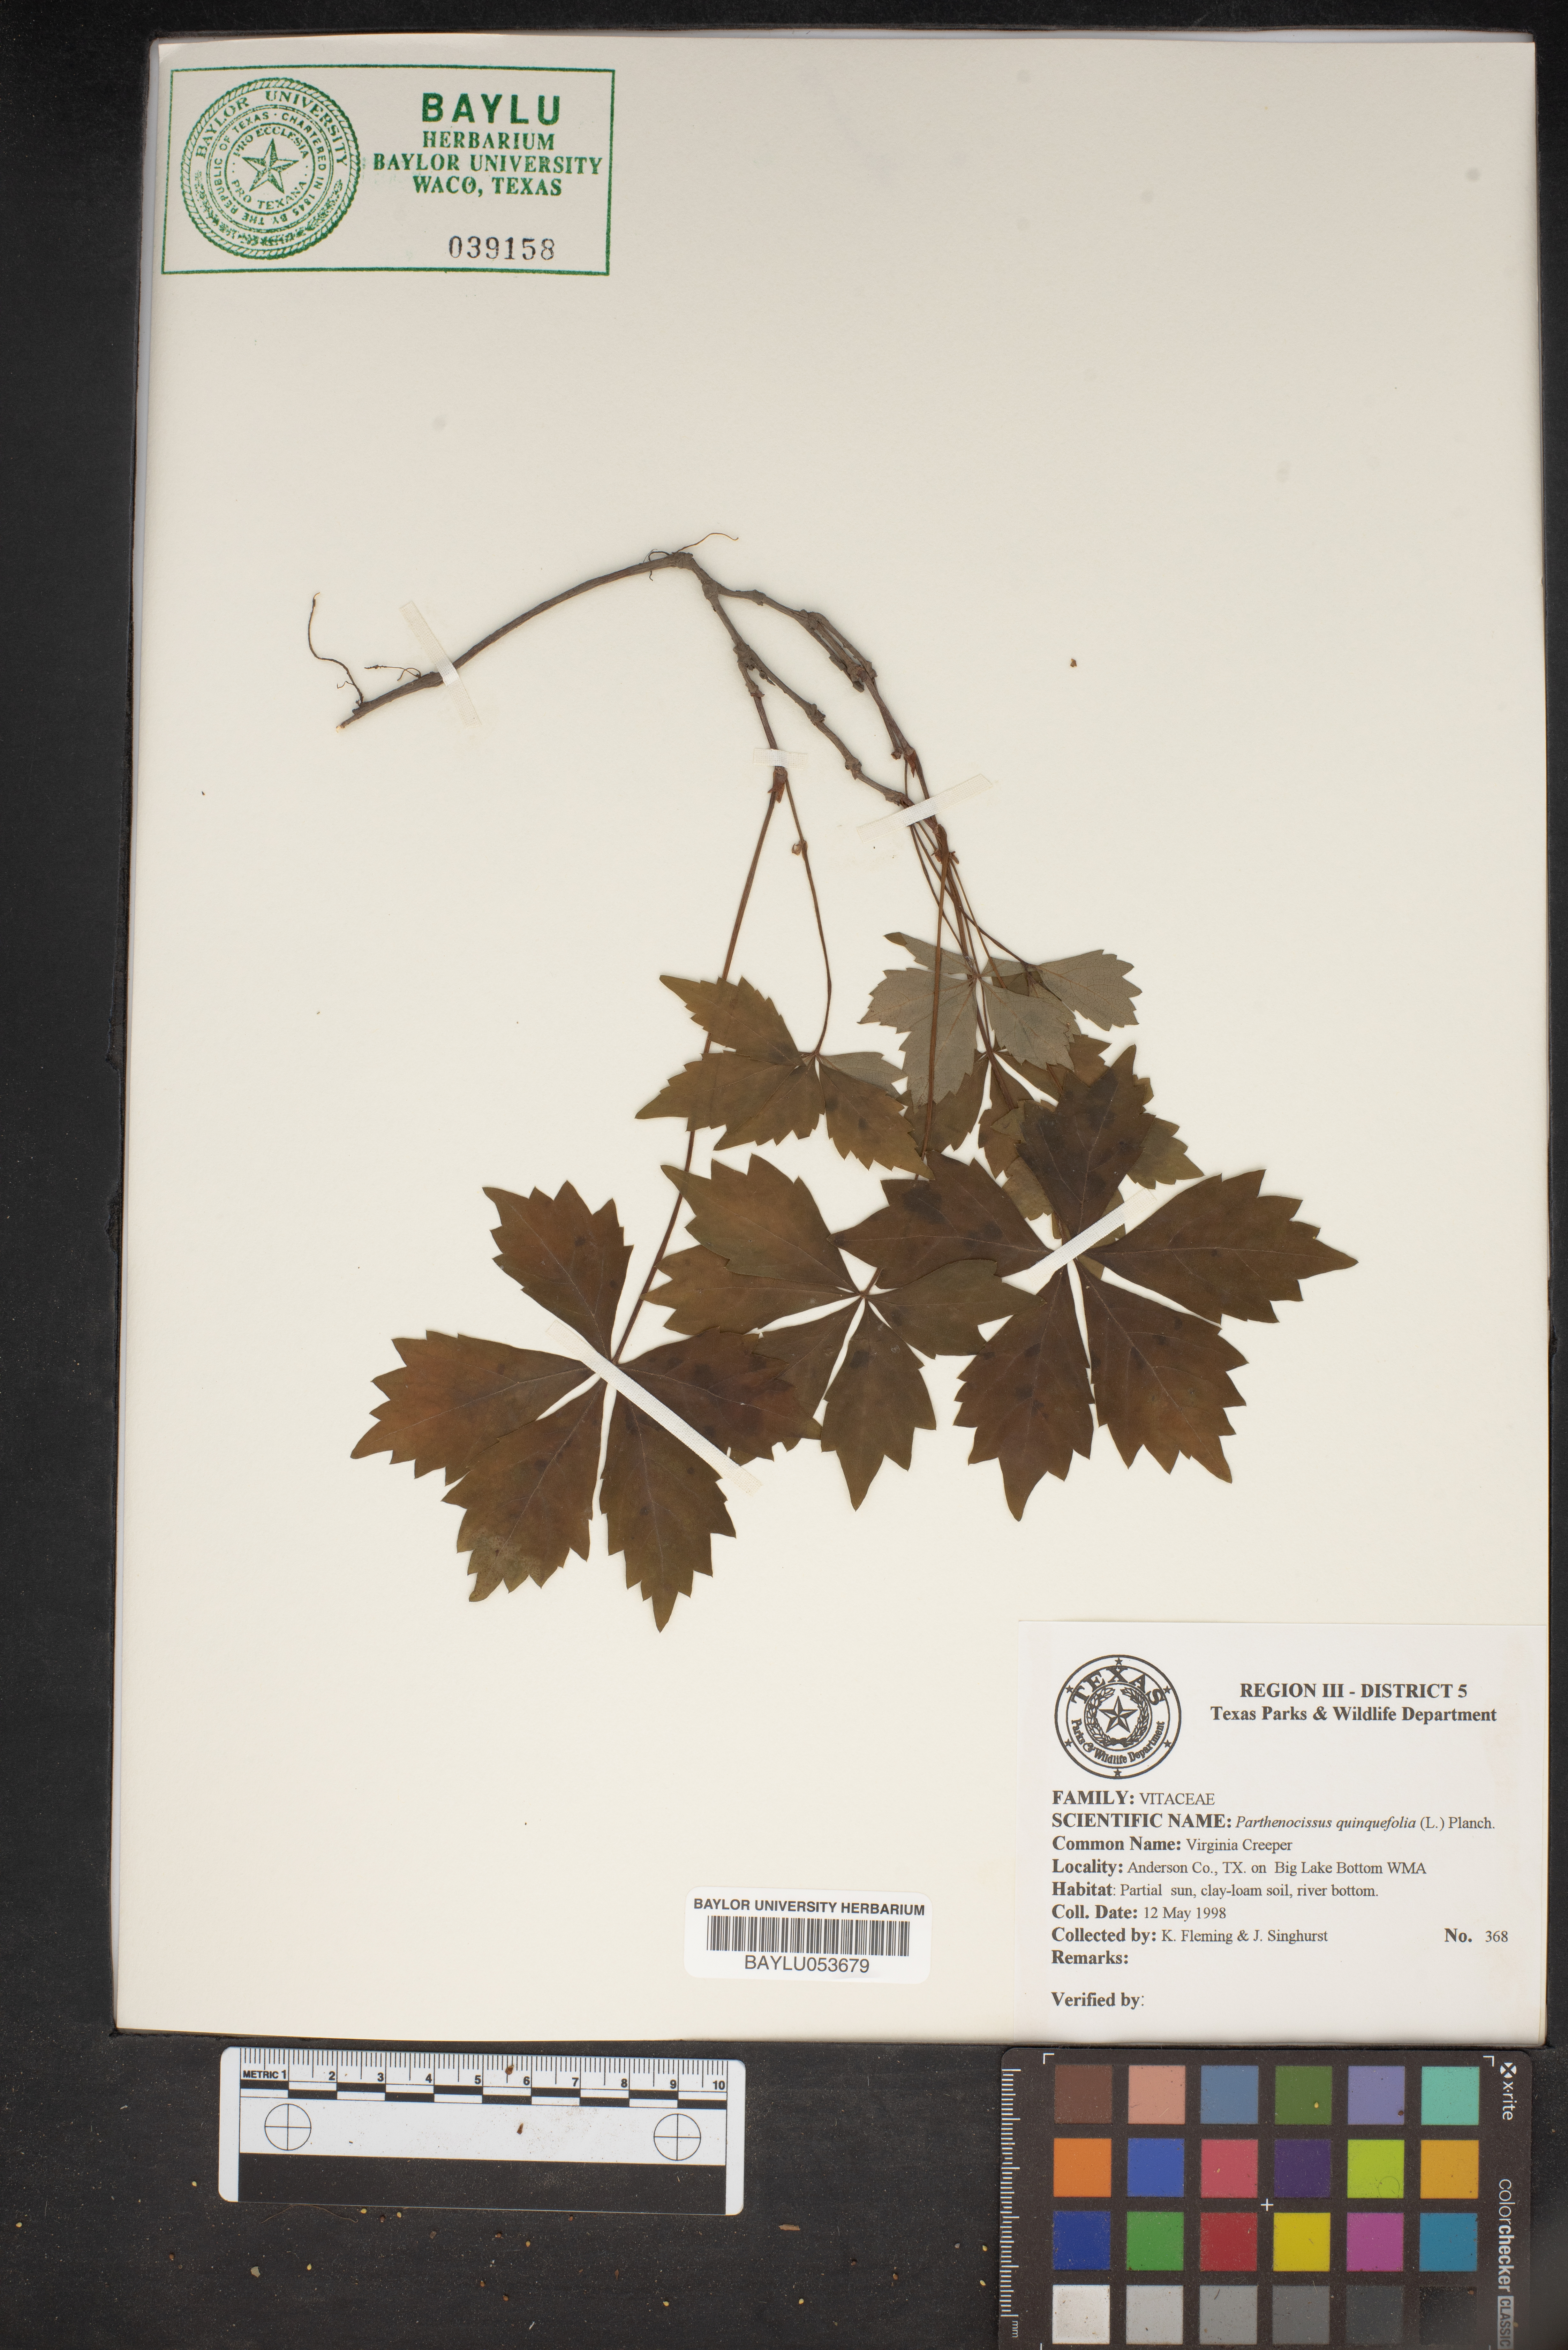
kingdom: Plantae
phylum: Tracheophyta
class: Magnoliopsida
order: Vitales
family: Vitaceae
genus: Parthenocissus
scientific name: Parthenocissus quinquefolia
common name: Virginia-creeper
